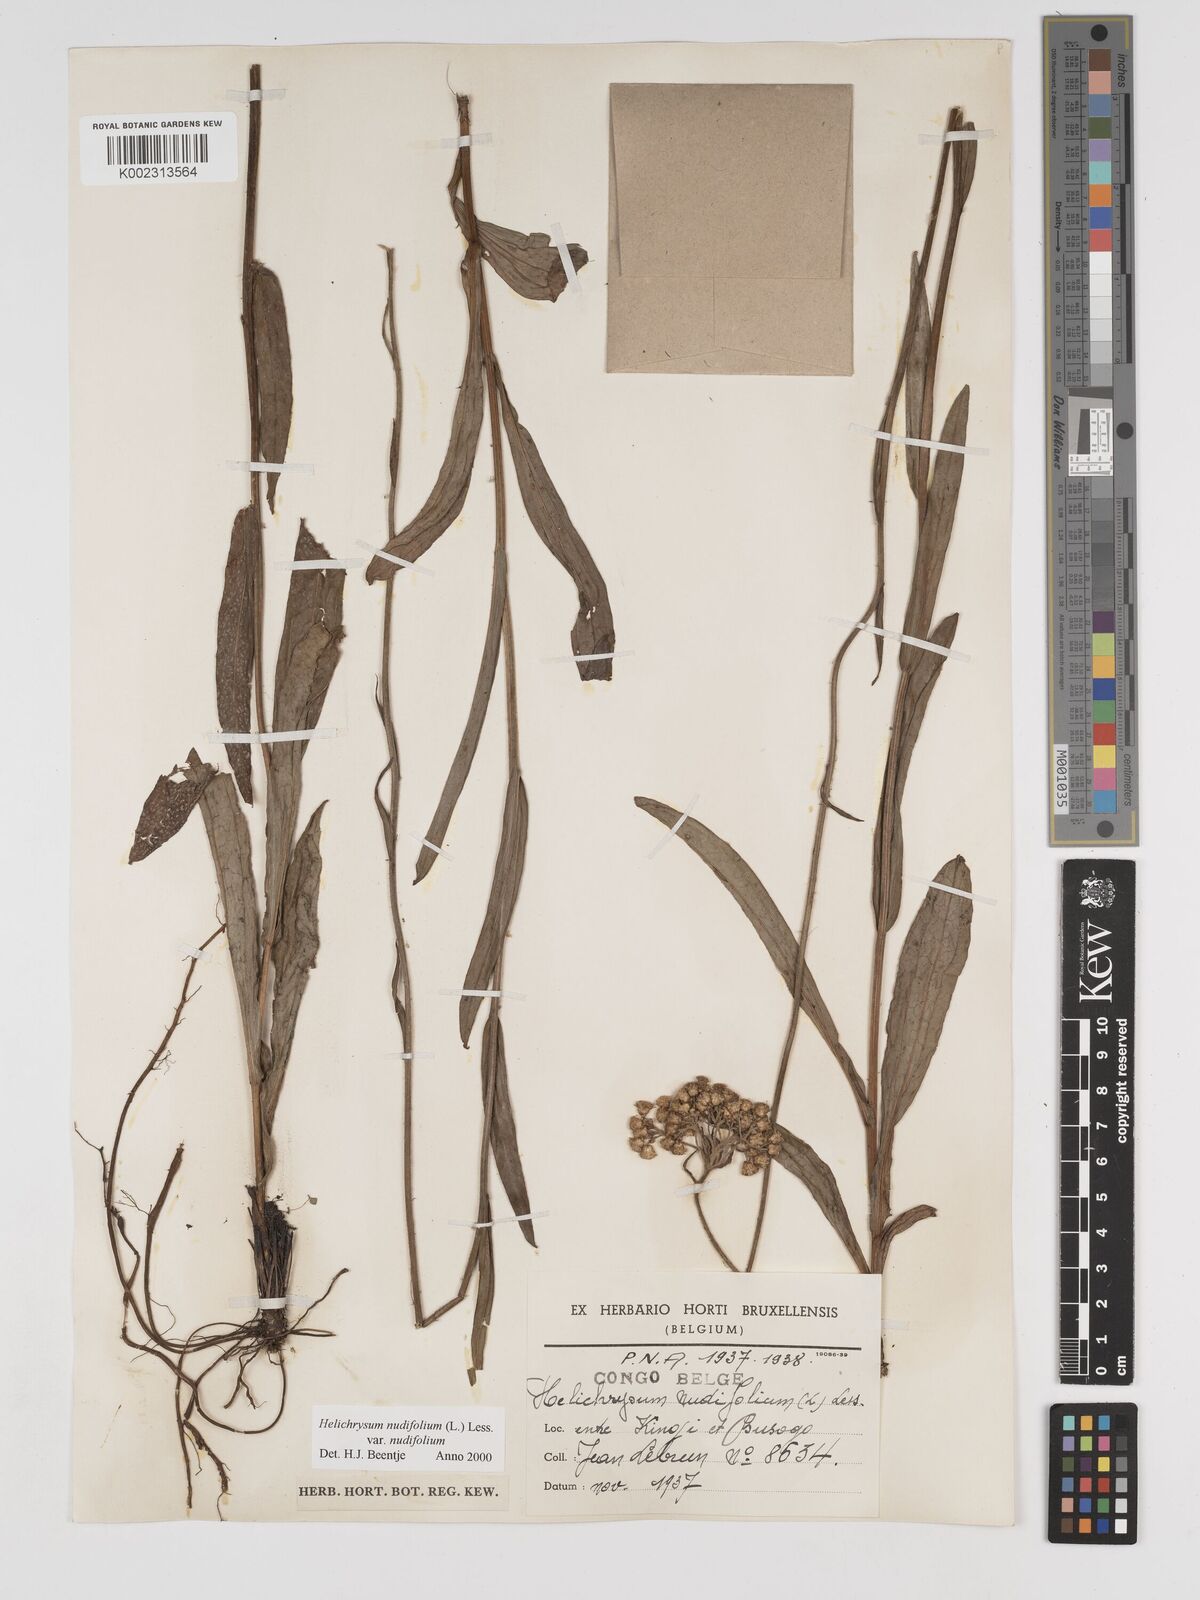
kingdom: Plantae
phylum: Tracheophyta
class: Magnoliopsida
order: Asterales
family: Asteraceae
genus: Helichrysum
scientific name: Helichrysum nudifolium
